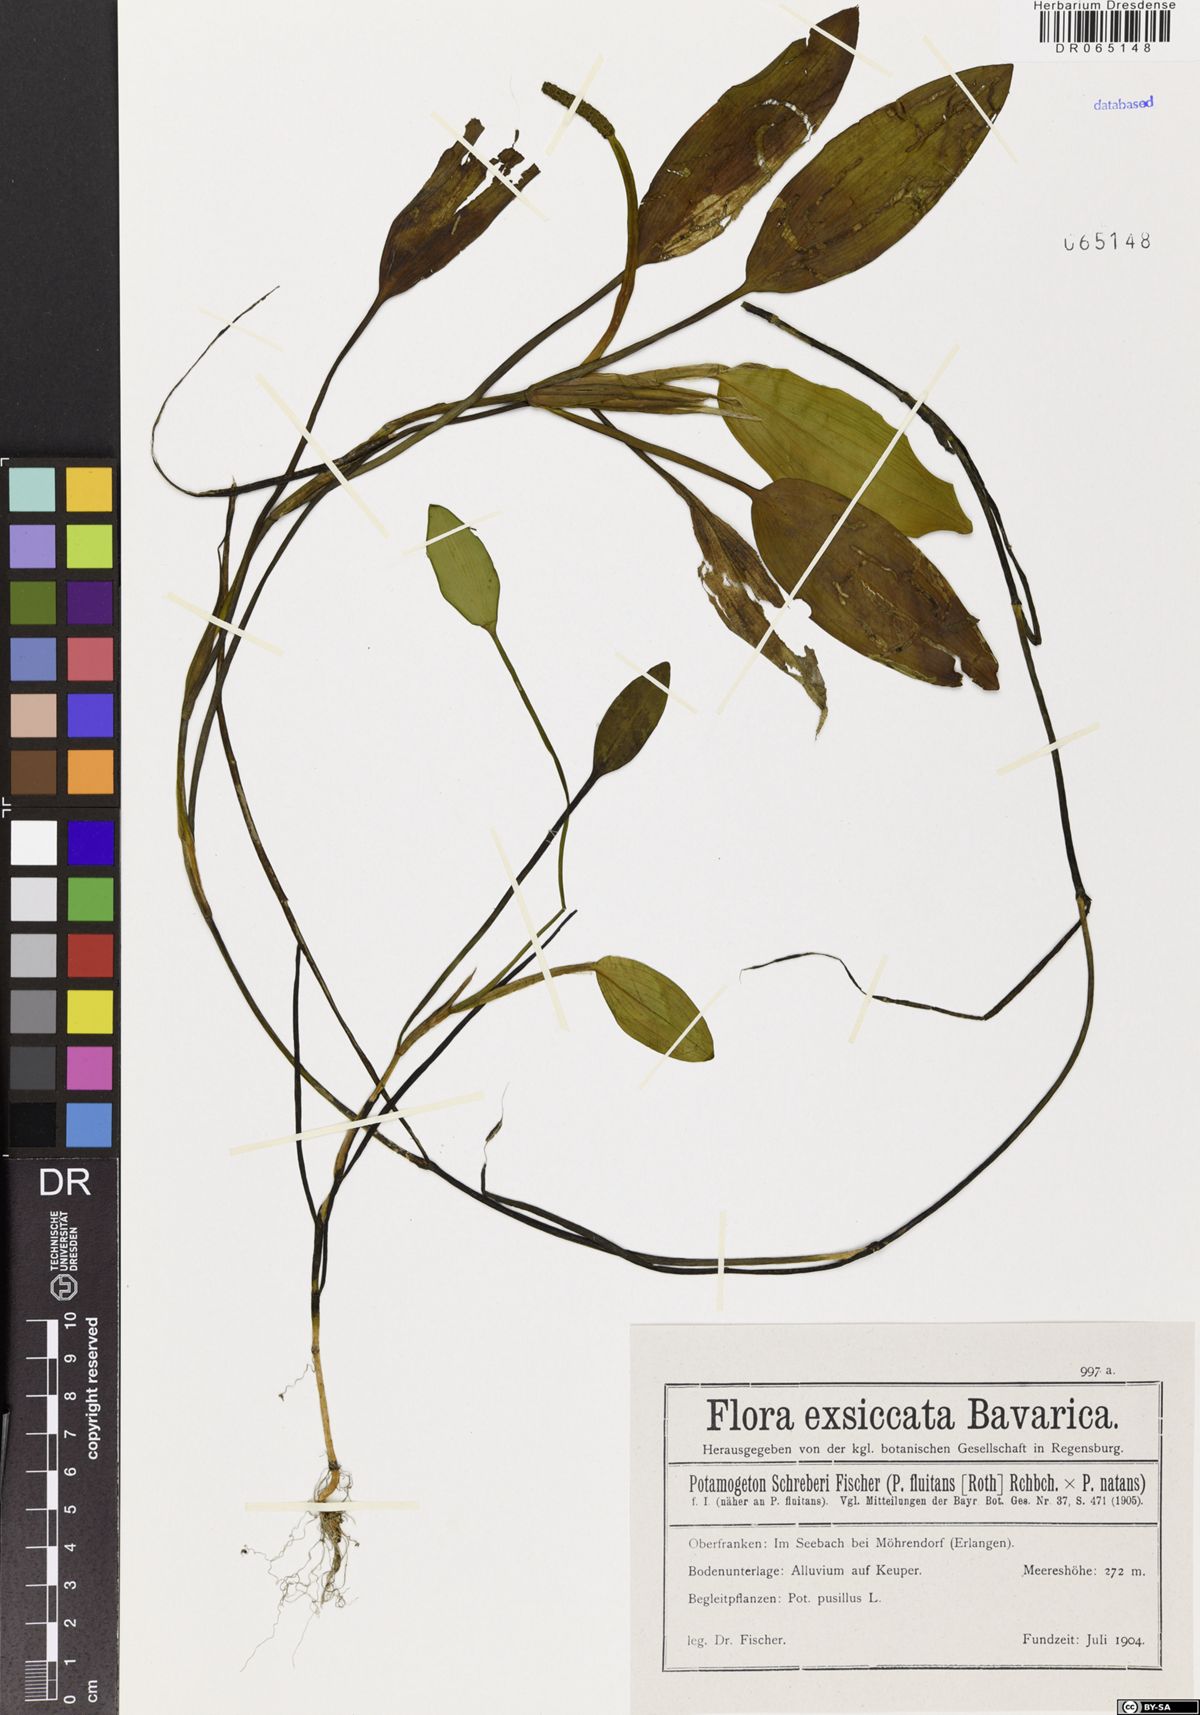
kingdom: Plantae
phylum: Tracheophyta
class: Liliopsida
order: Alismatales
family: Potamogetonaceae
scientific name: Potamogetonaceae
